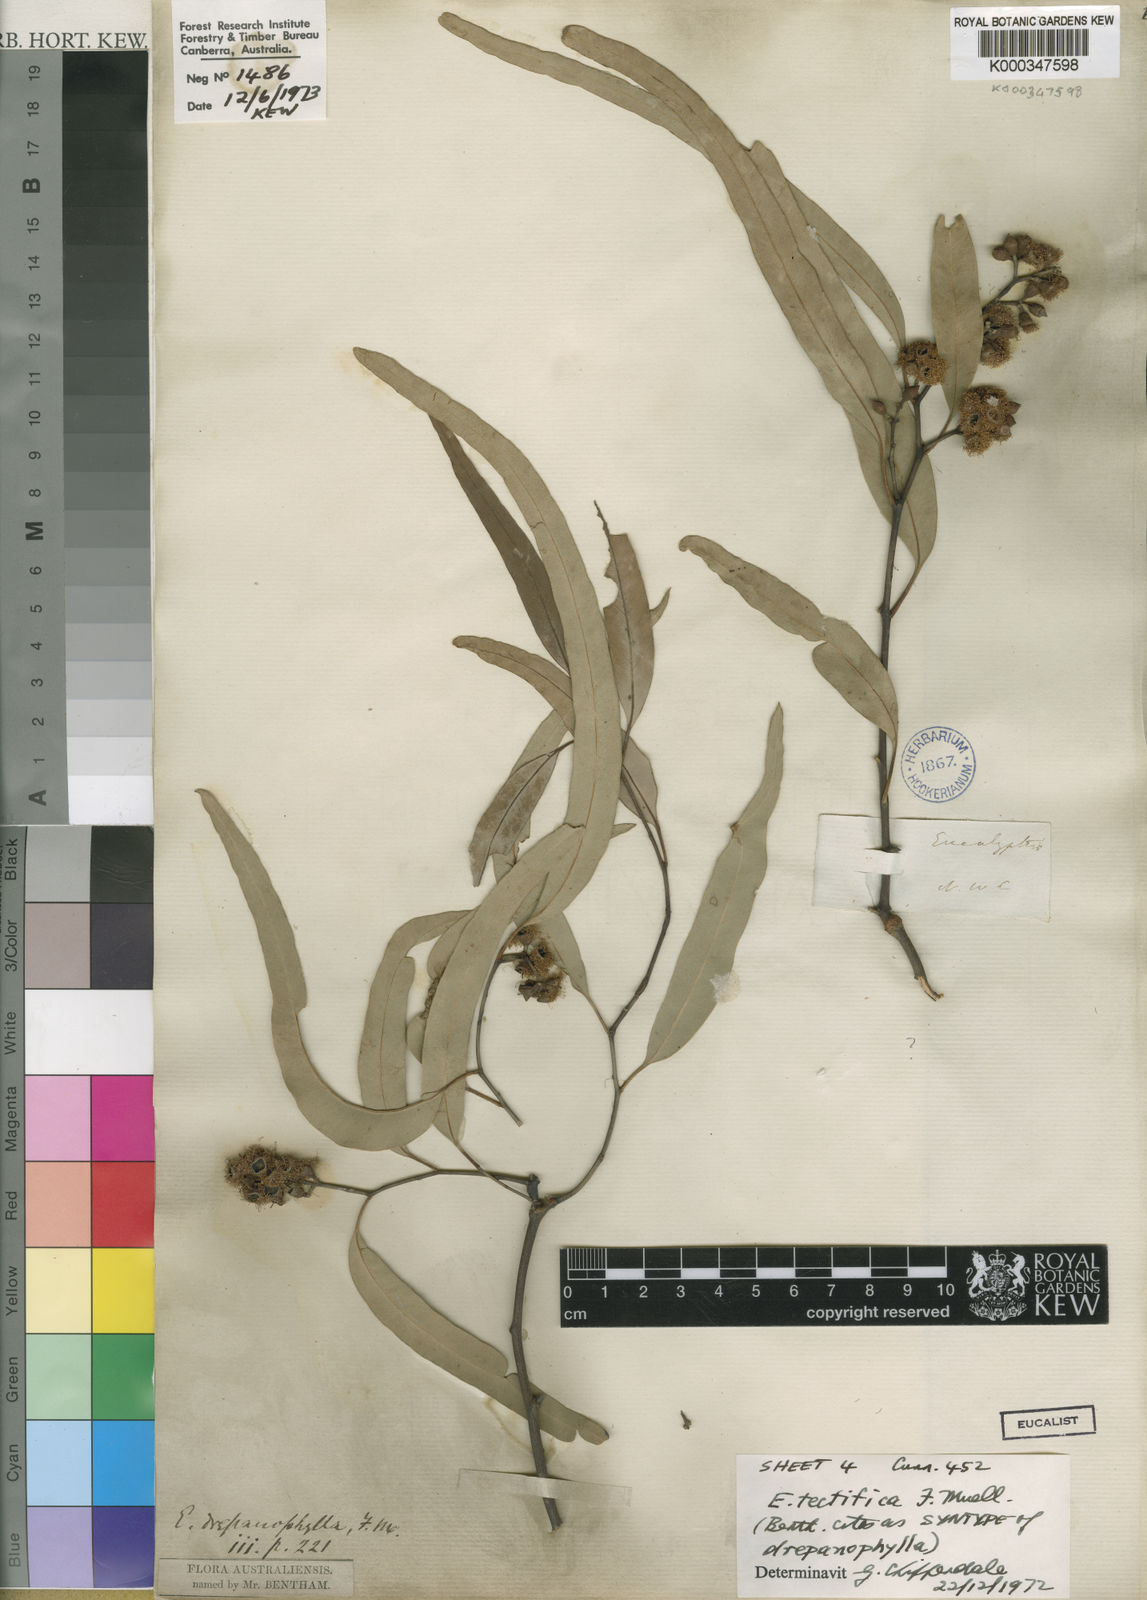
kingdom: Plantae
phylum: Tracheophyta
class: Magnoliopsida
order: Myrtales
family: Myrtaceae
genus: Eucalyptus
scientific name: Eucalyptus tectifica
